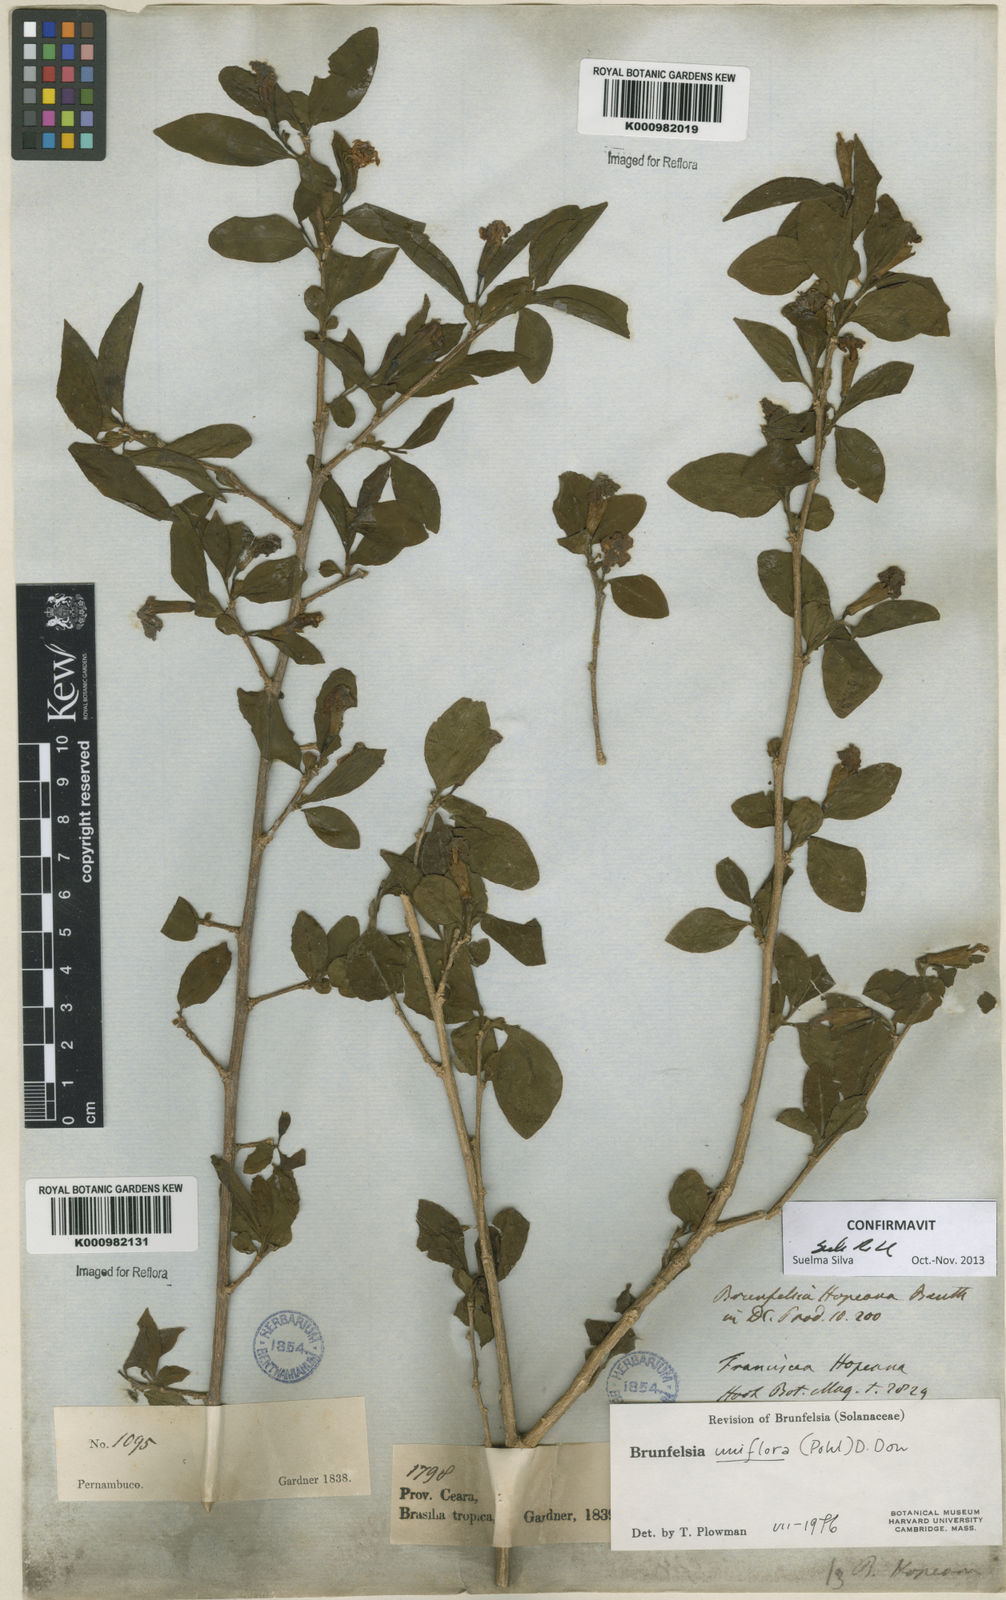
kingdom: Plantae
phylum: Tracheophyta
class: Magnoliopsida
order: Solanales
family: Solanaceae
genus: Brunfelsia
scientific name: Brunfelsia uniflora
